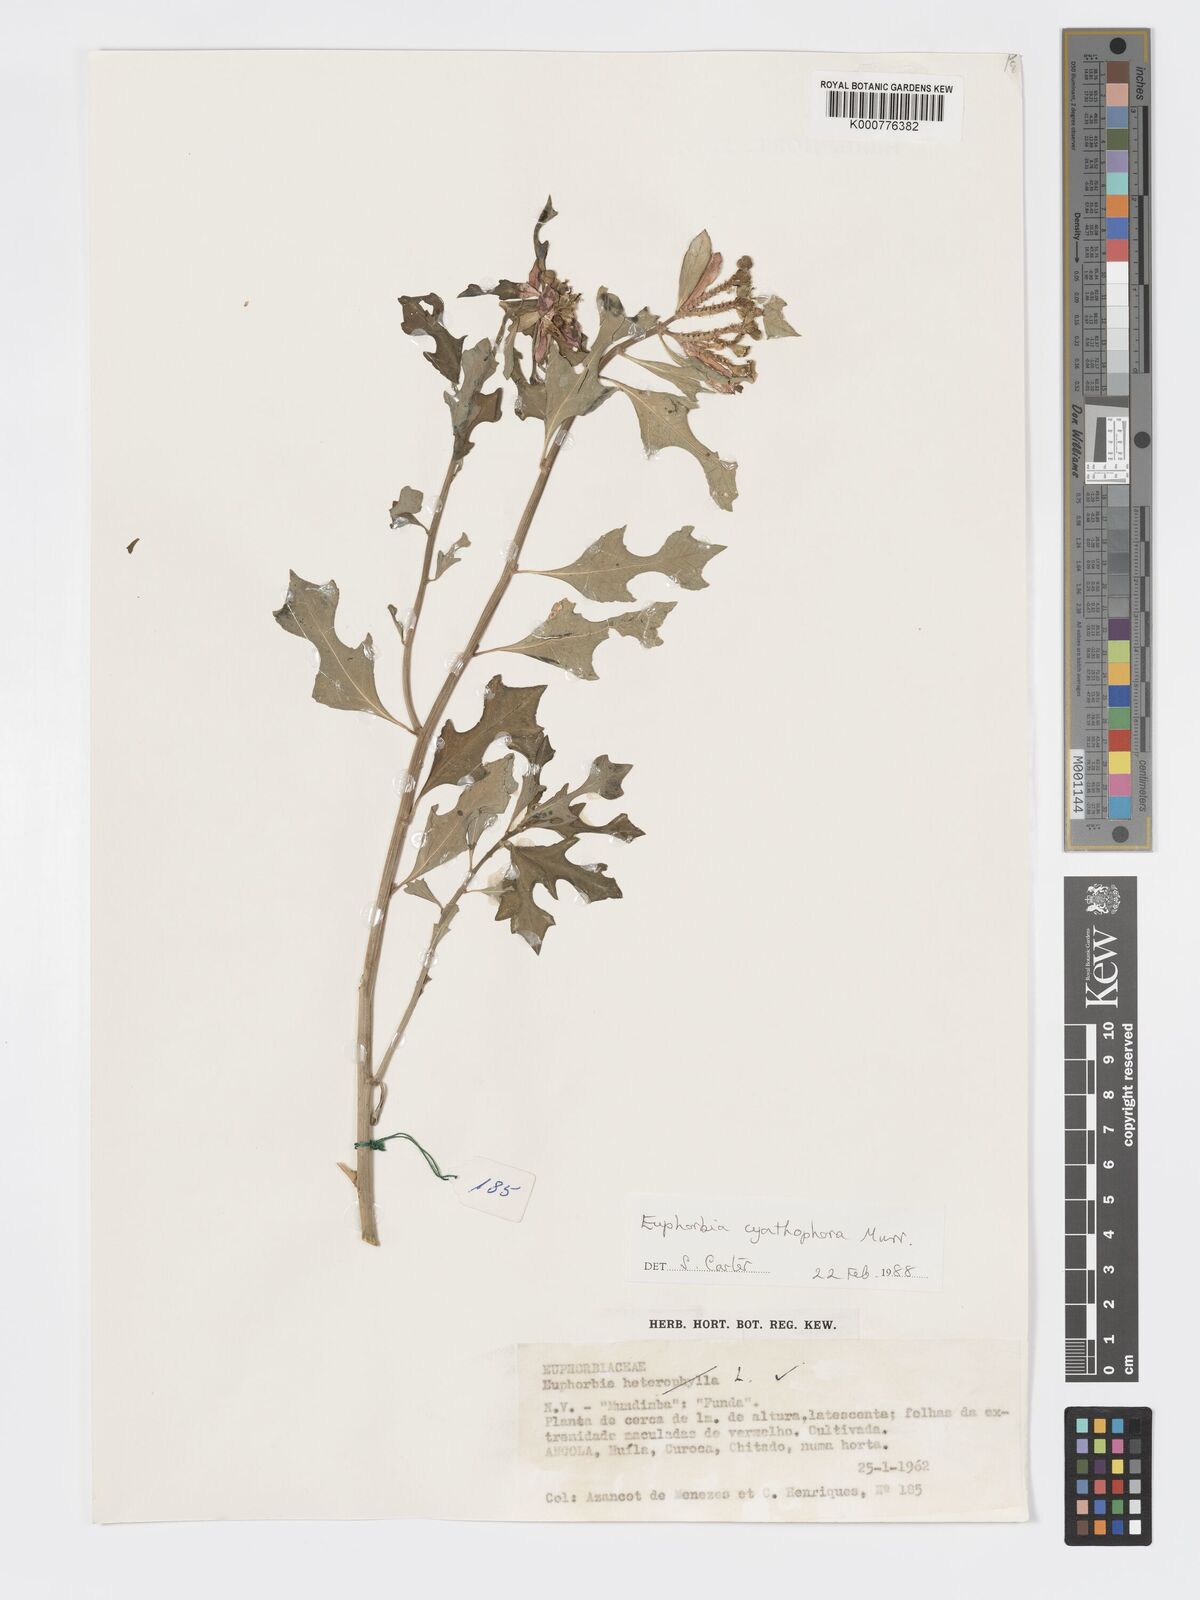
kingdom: Plantae
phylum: Tracheophyta
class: Magnoliopsida
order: Malpighiales
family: Euphorbiaceae
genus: Euphorbia
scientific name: Euphorbia heterophylla
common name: Mexican fireplant
